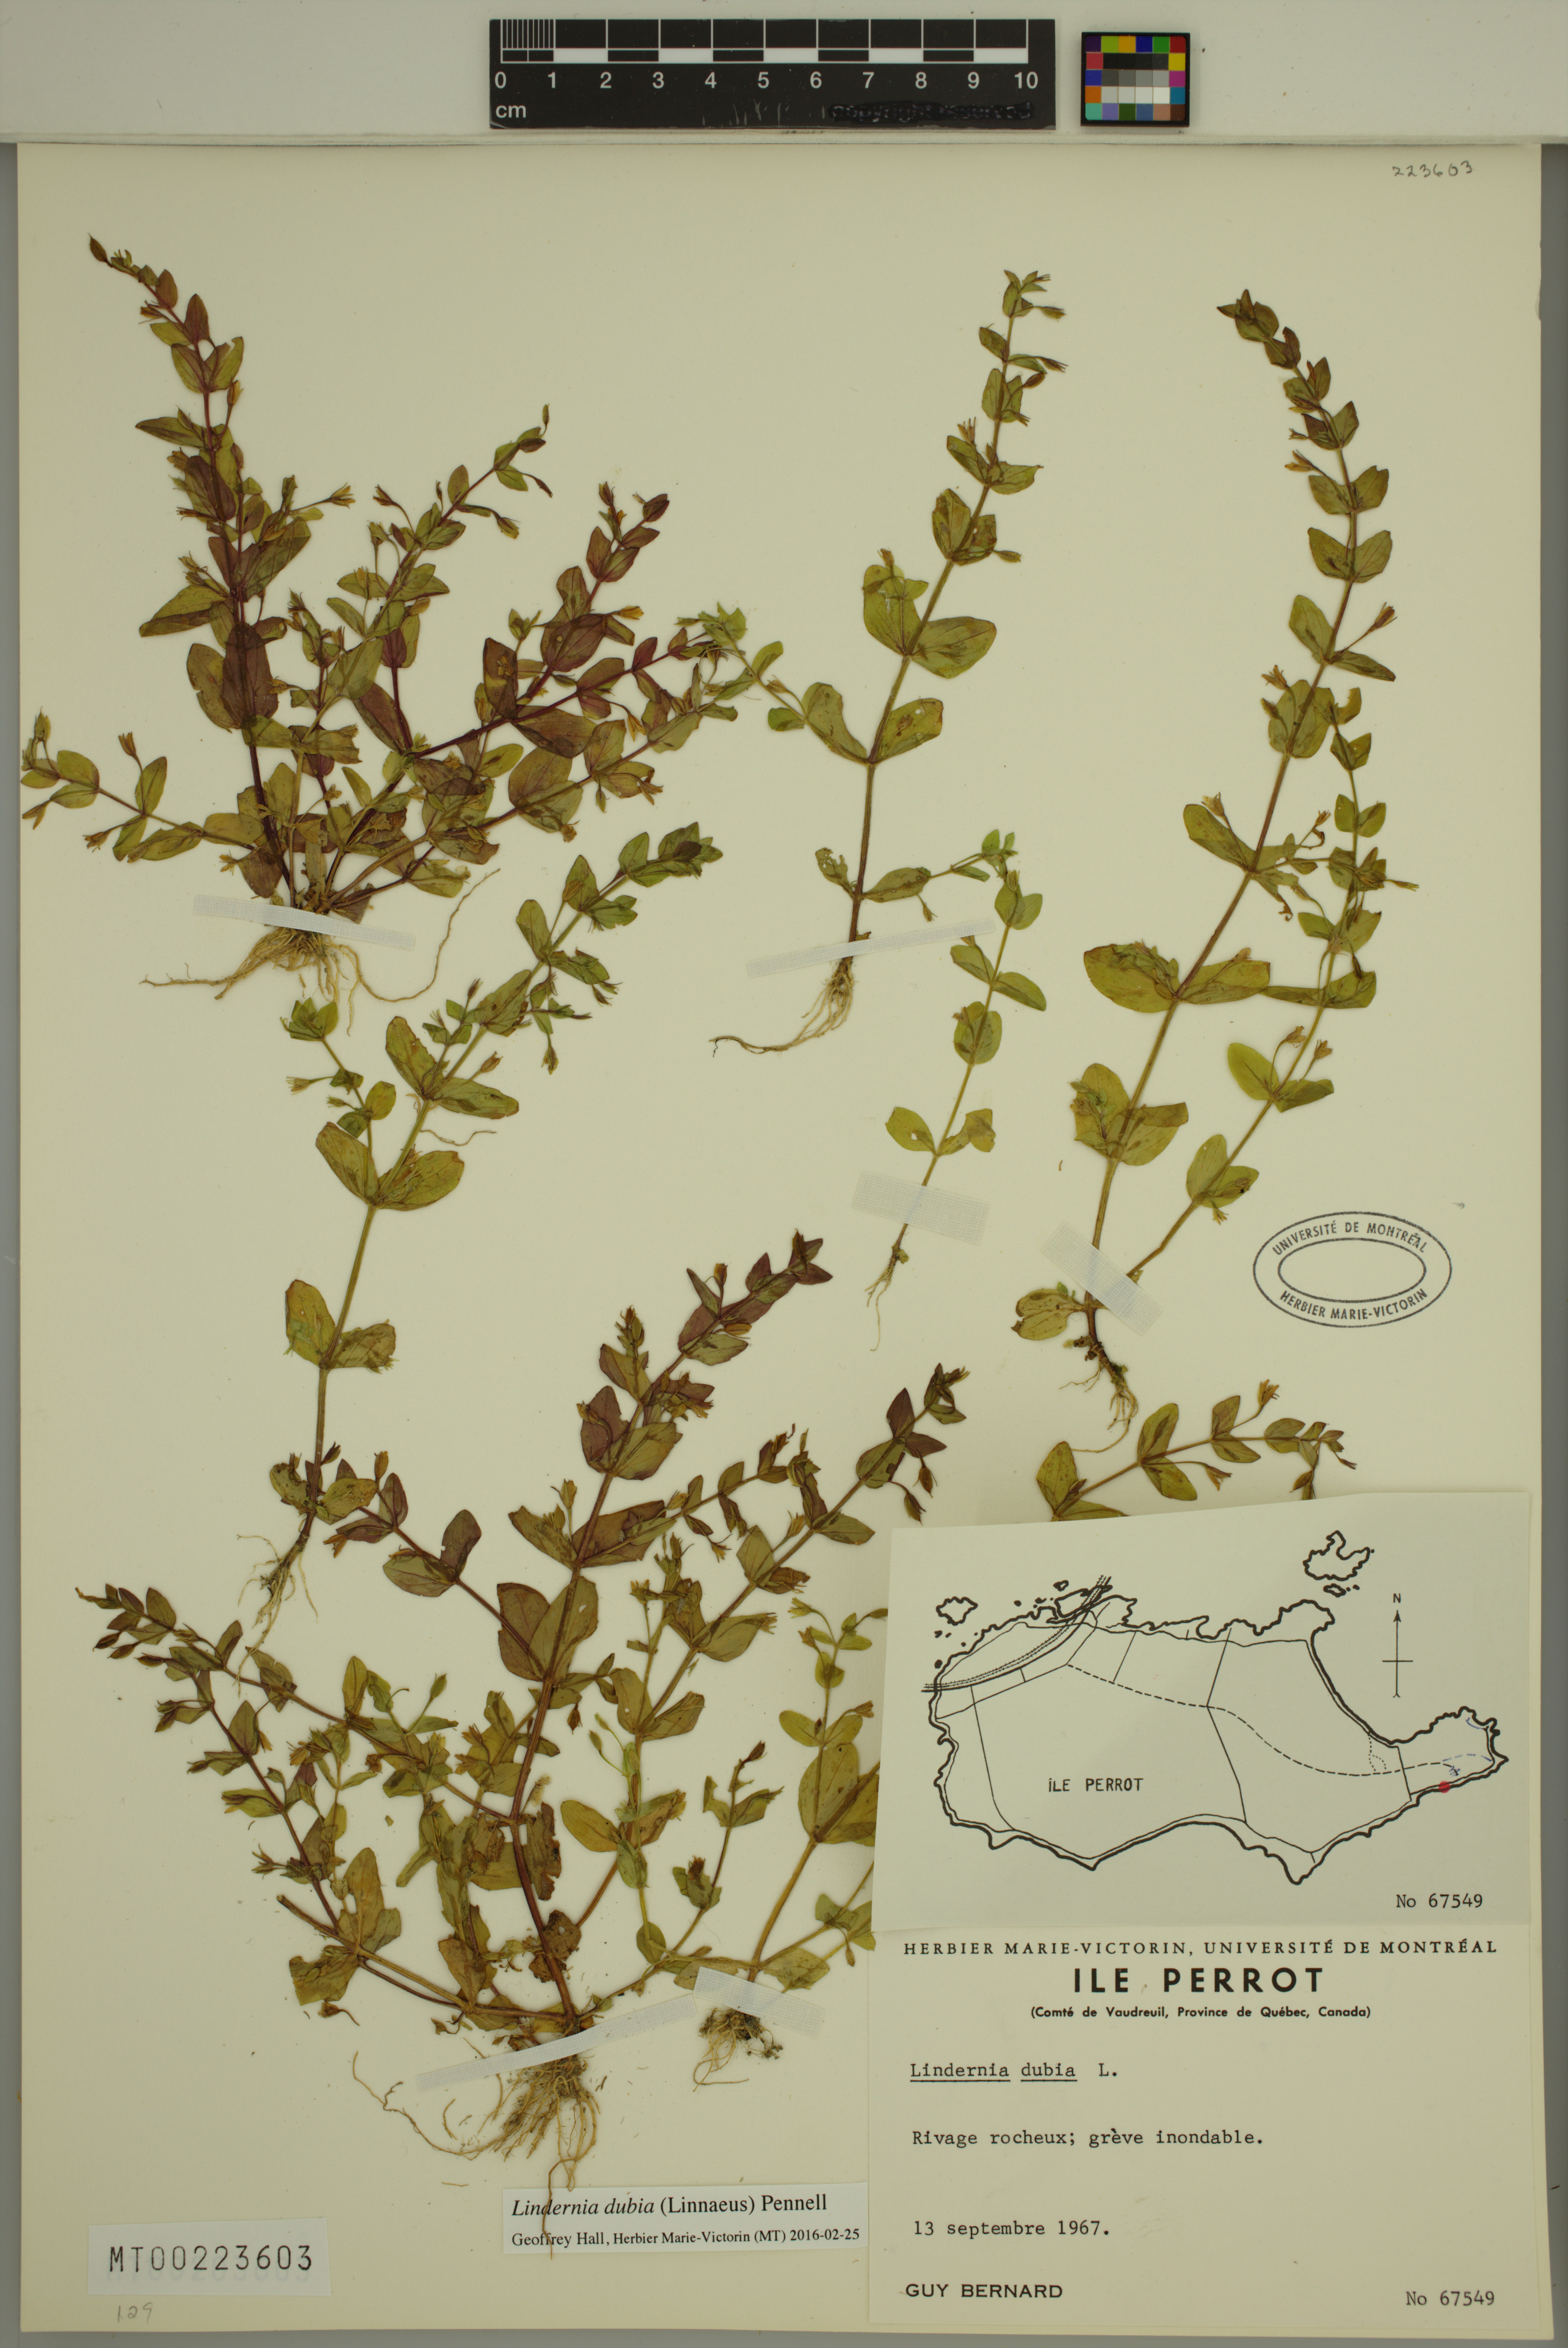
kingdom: Plantae
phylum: Tracheophyta
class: Magnoliopsida
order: Lamiales
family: Linderniaceae
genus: Lindernia
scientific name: Lindernia dubia
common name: Annual false pimpernel
